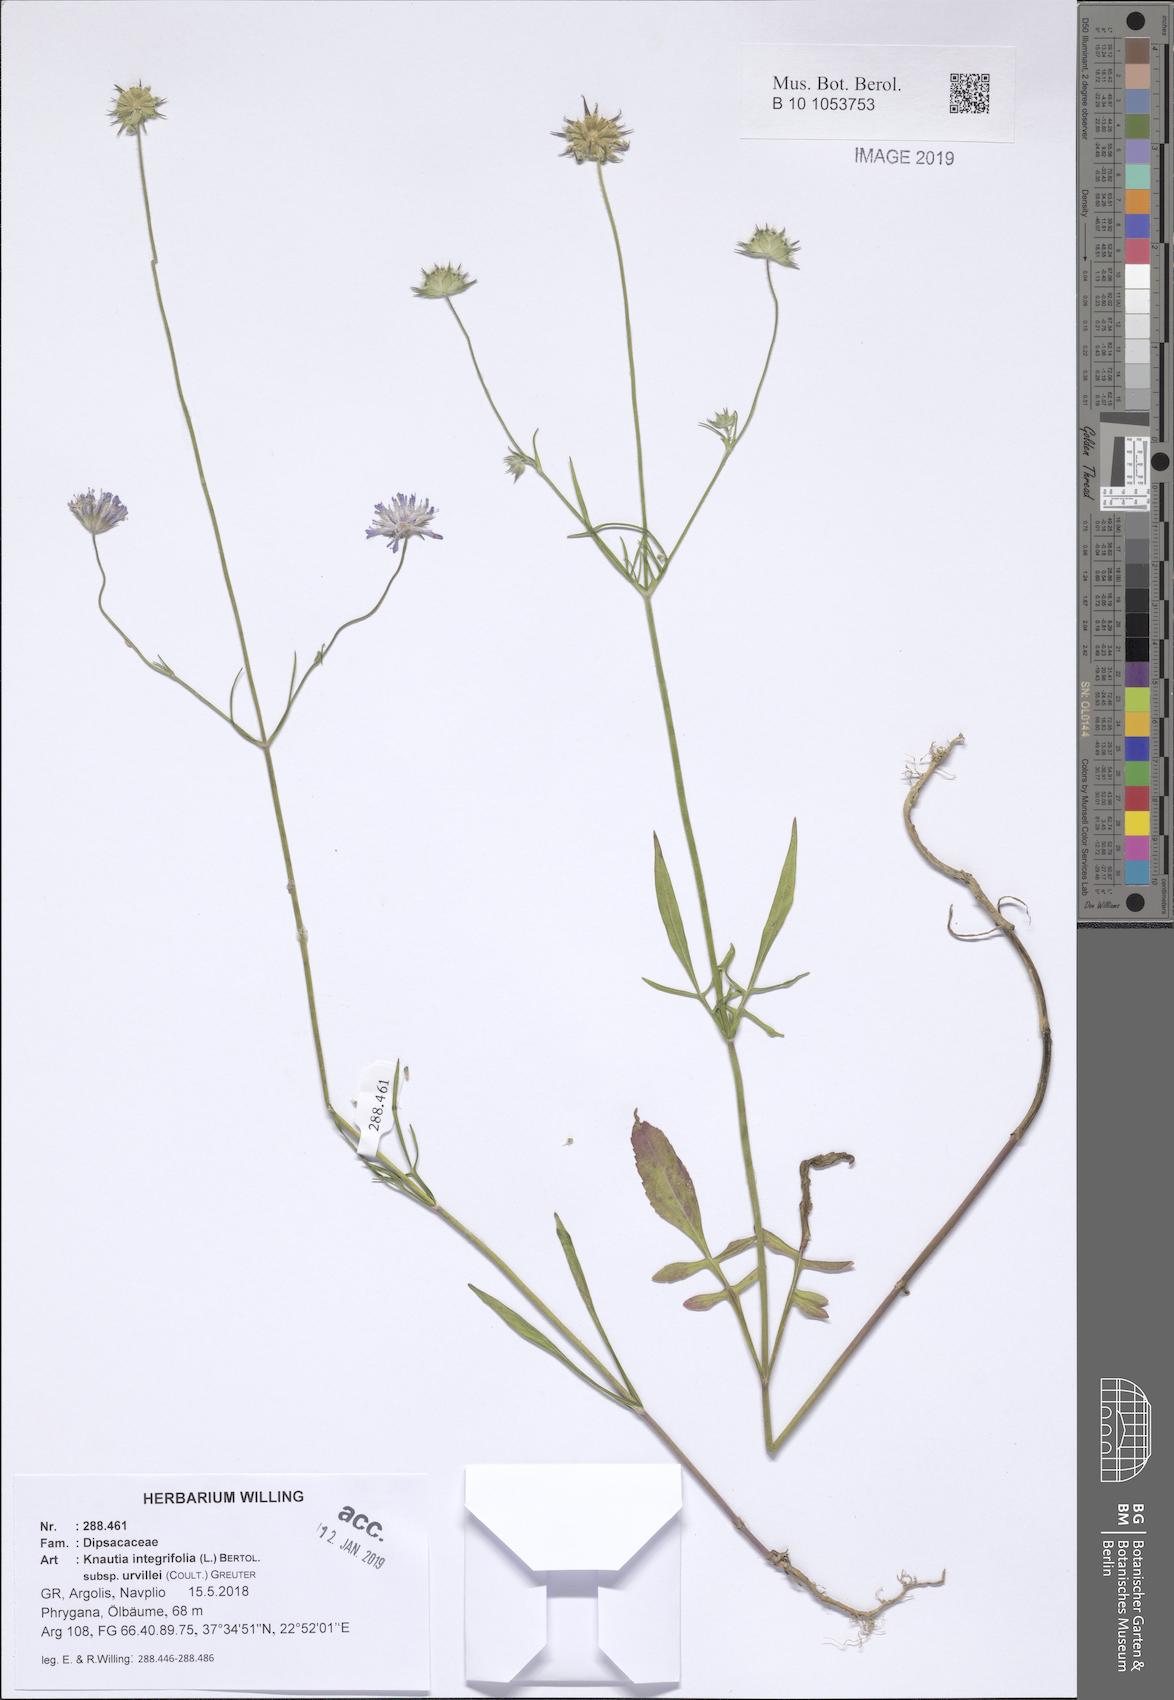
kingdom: Plantae
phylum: Tracheophyta
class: Magnoliopsida
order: Dipsacales
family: Caprifoliaceae
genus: Knautia
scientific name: Knautia integrifolia
